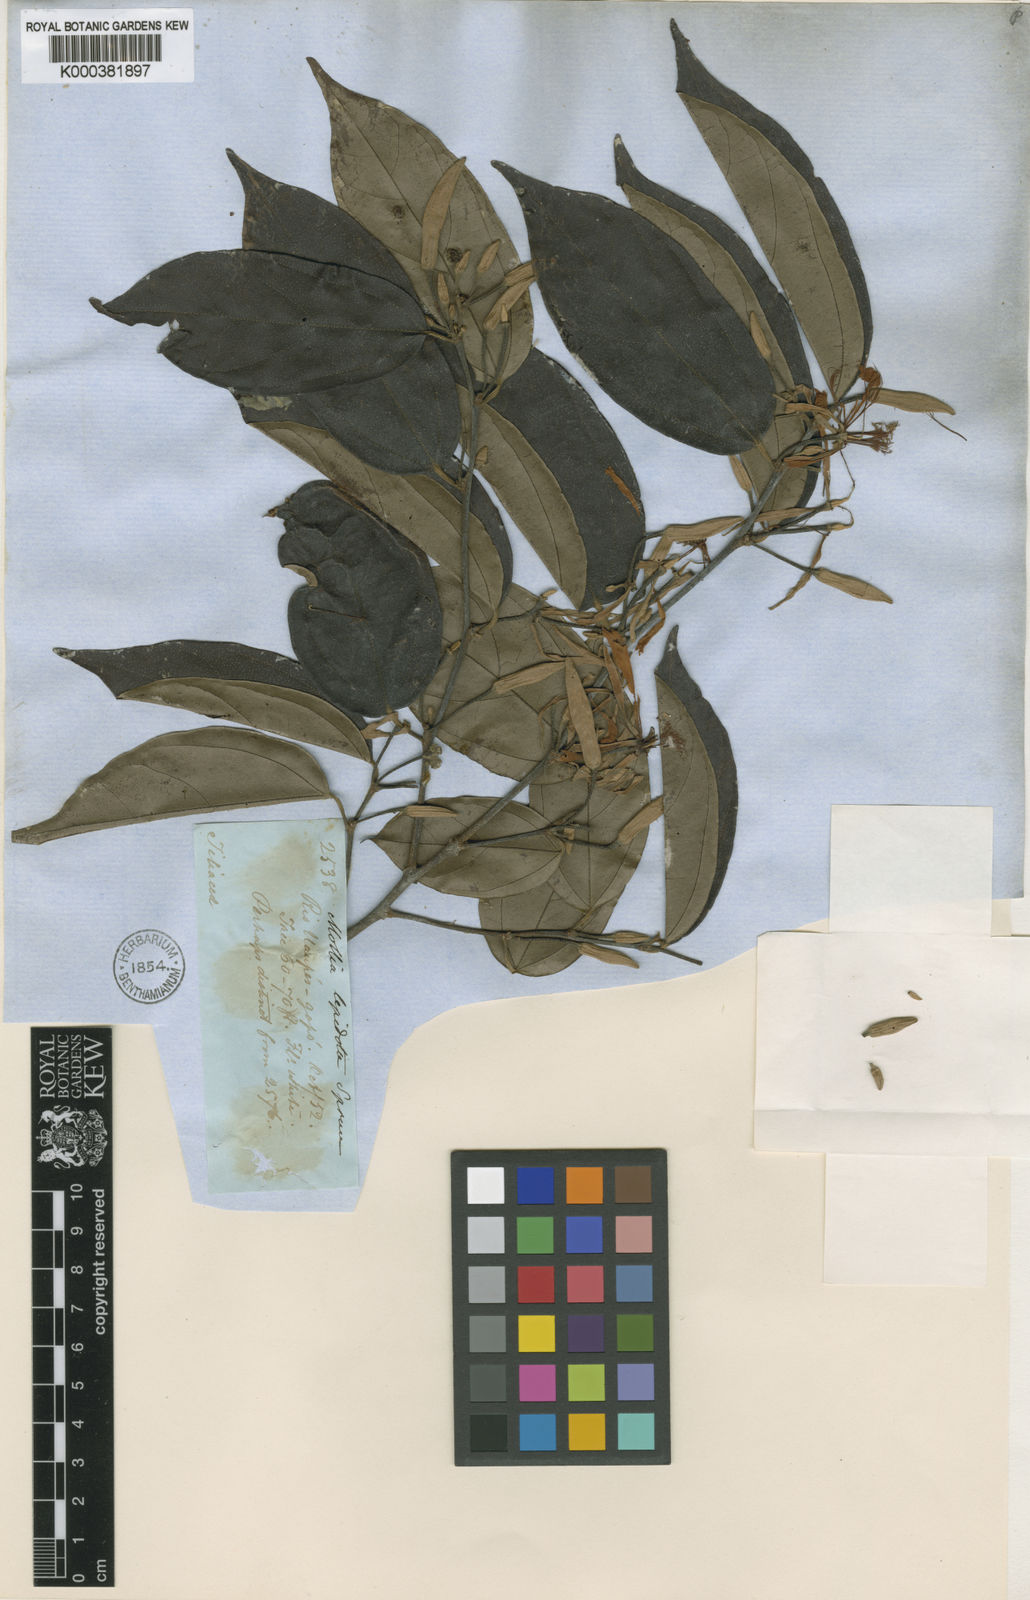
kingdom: Plantae
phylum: Tracheophyta
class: Magnoliopsida
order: Malvales
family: Malvaceae
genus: Mollia
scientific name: Mollia lepidota
